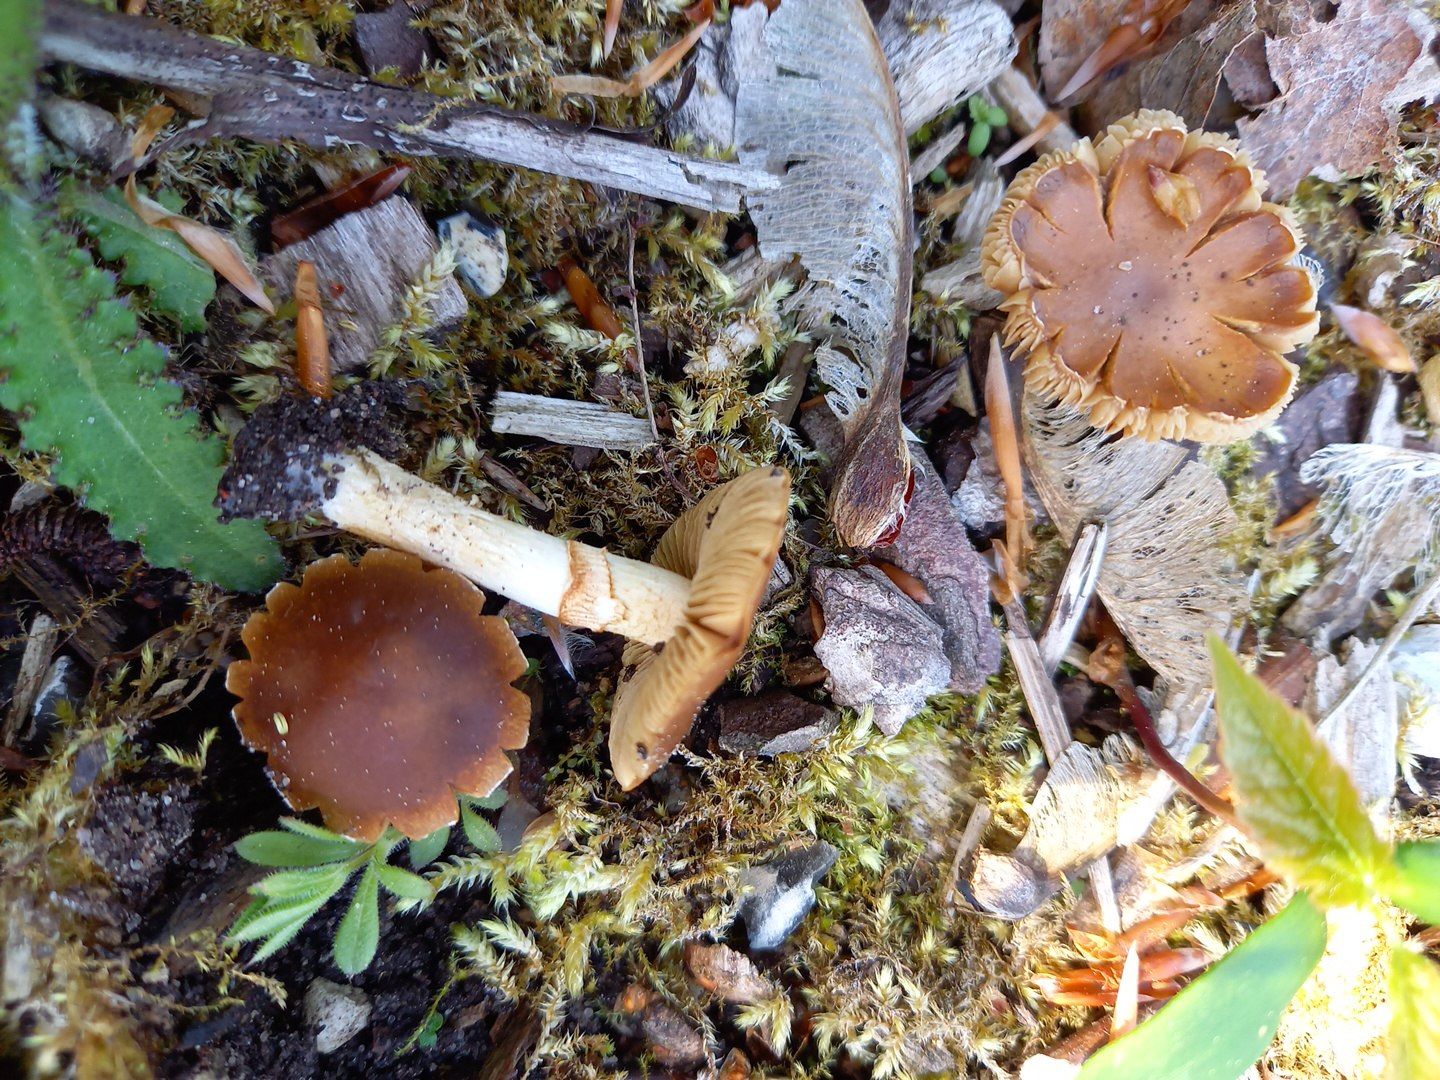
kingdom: Fungi
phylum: Basidiomycota
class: Agaricomycetes
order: Agaricales
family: Bolbitiaceae
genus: Conocybe
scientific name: Conocybe aporos
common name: tidlig dansehat
